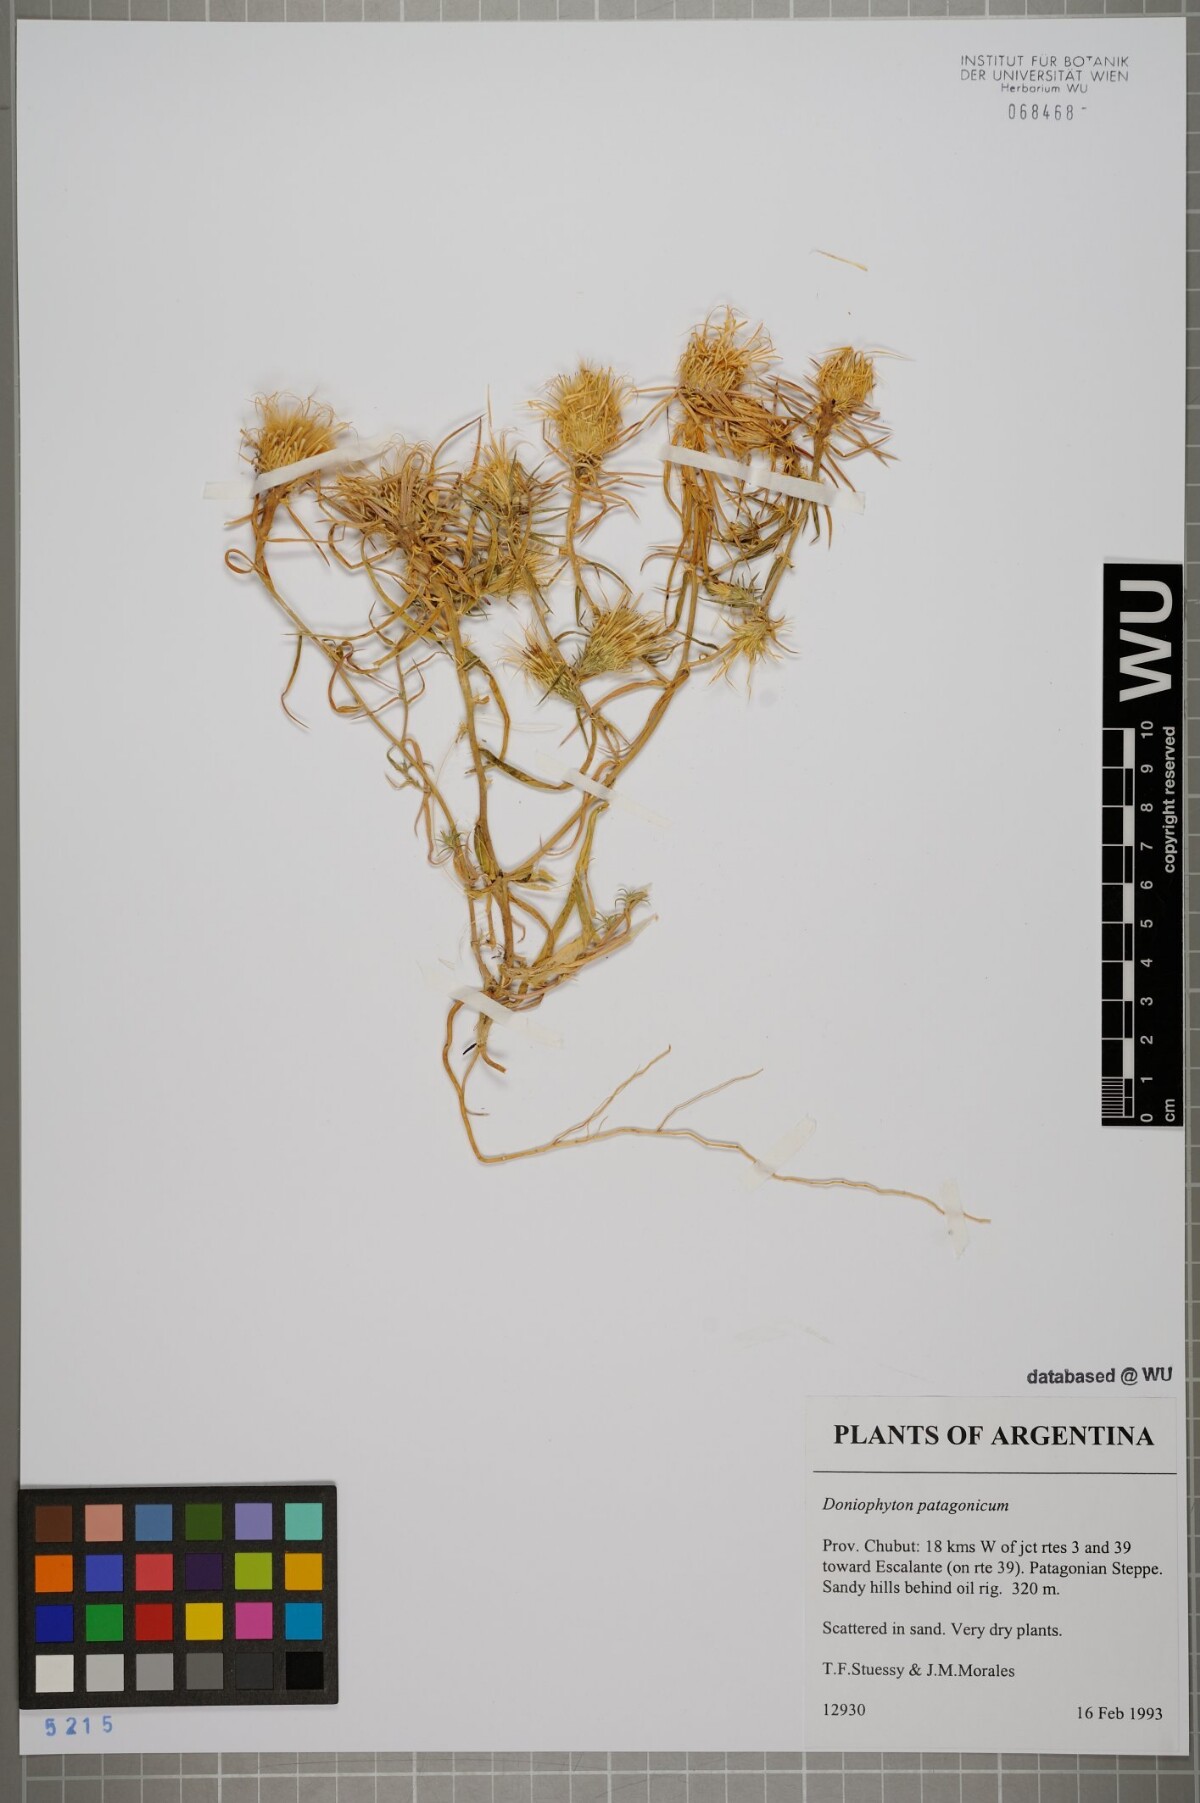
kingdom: Plantae
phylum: Tracheophyta
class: Magnoliopsida
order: Asterales
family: Asteraceae
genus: Doniophyton
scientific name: Doniophyton anomalum
